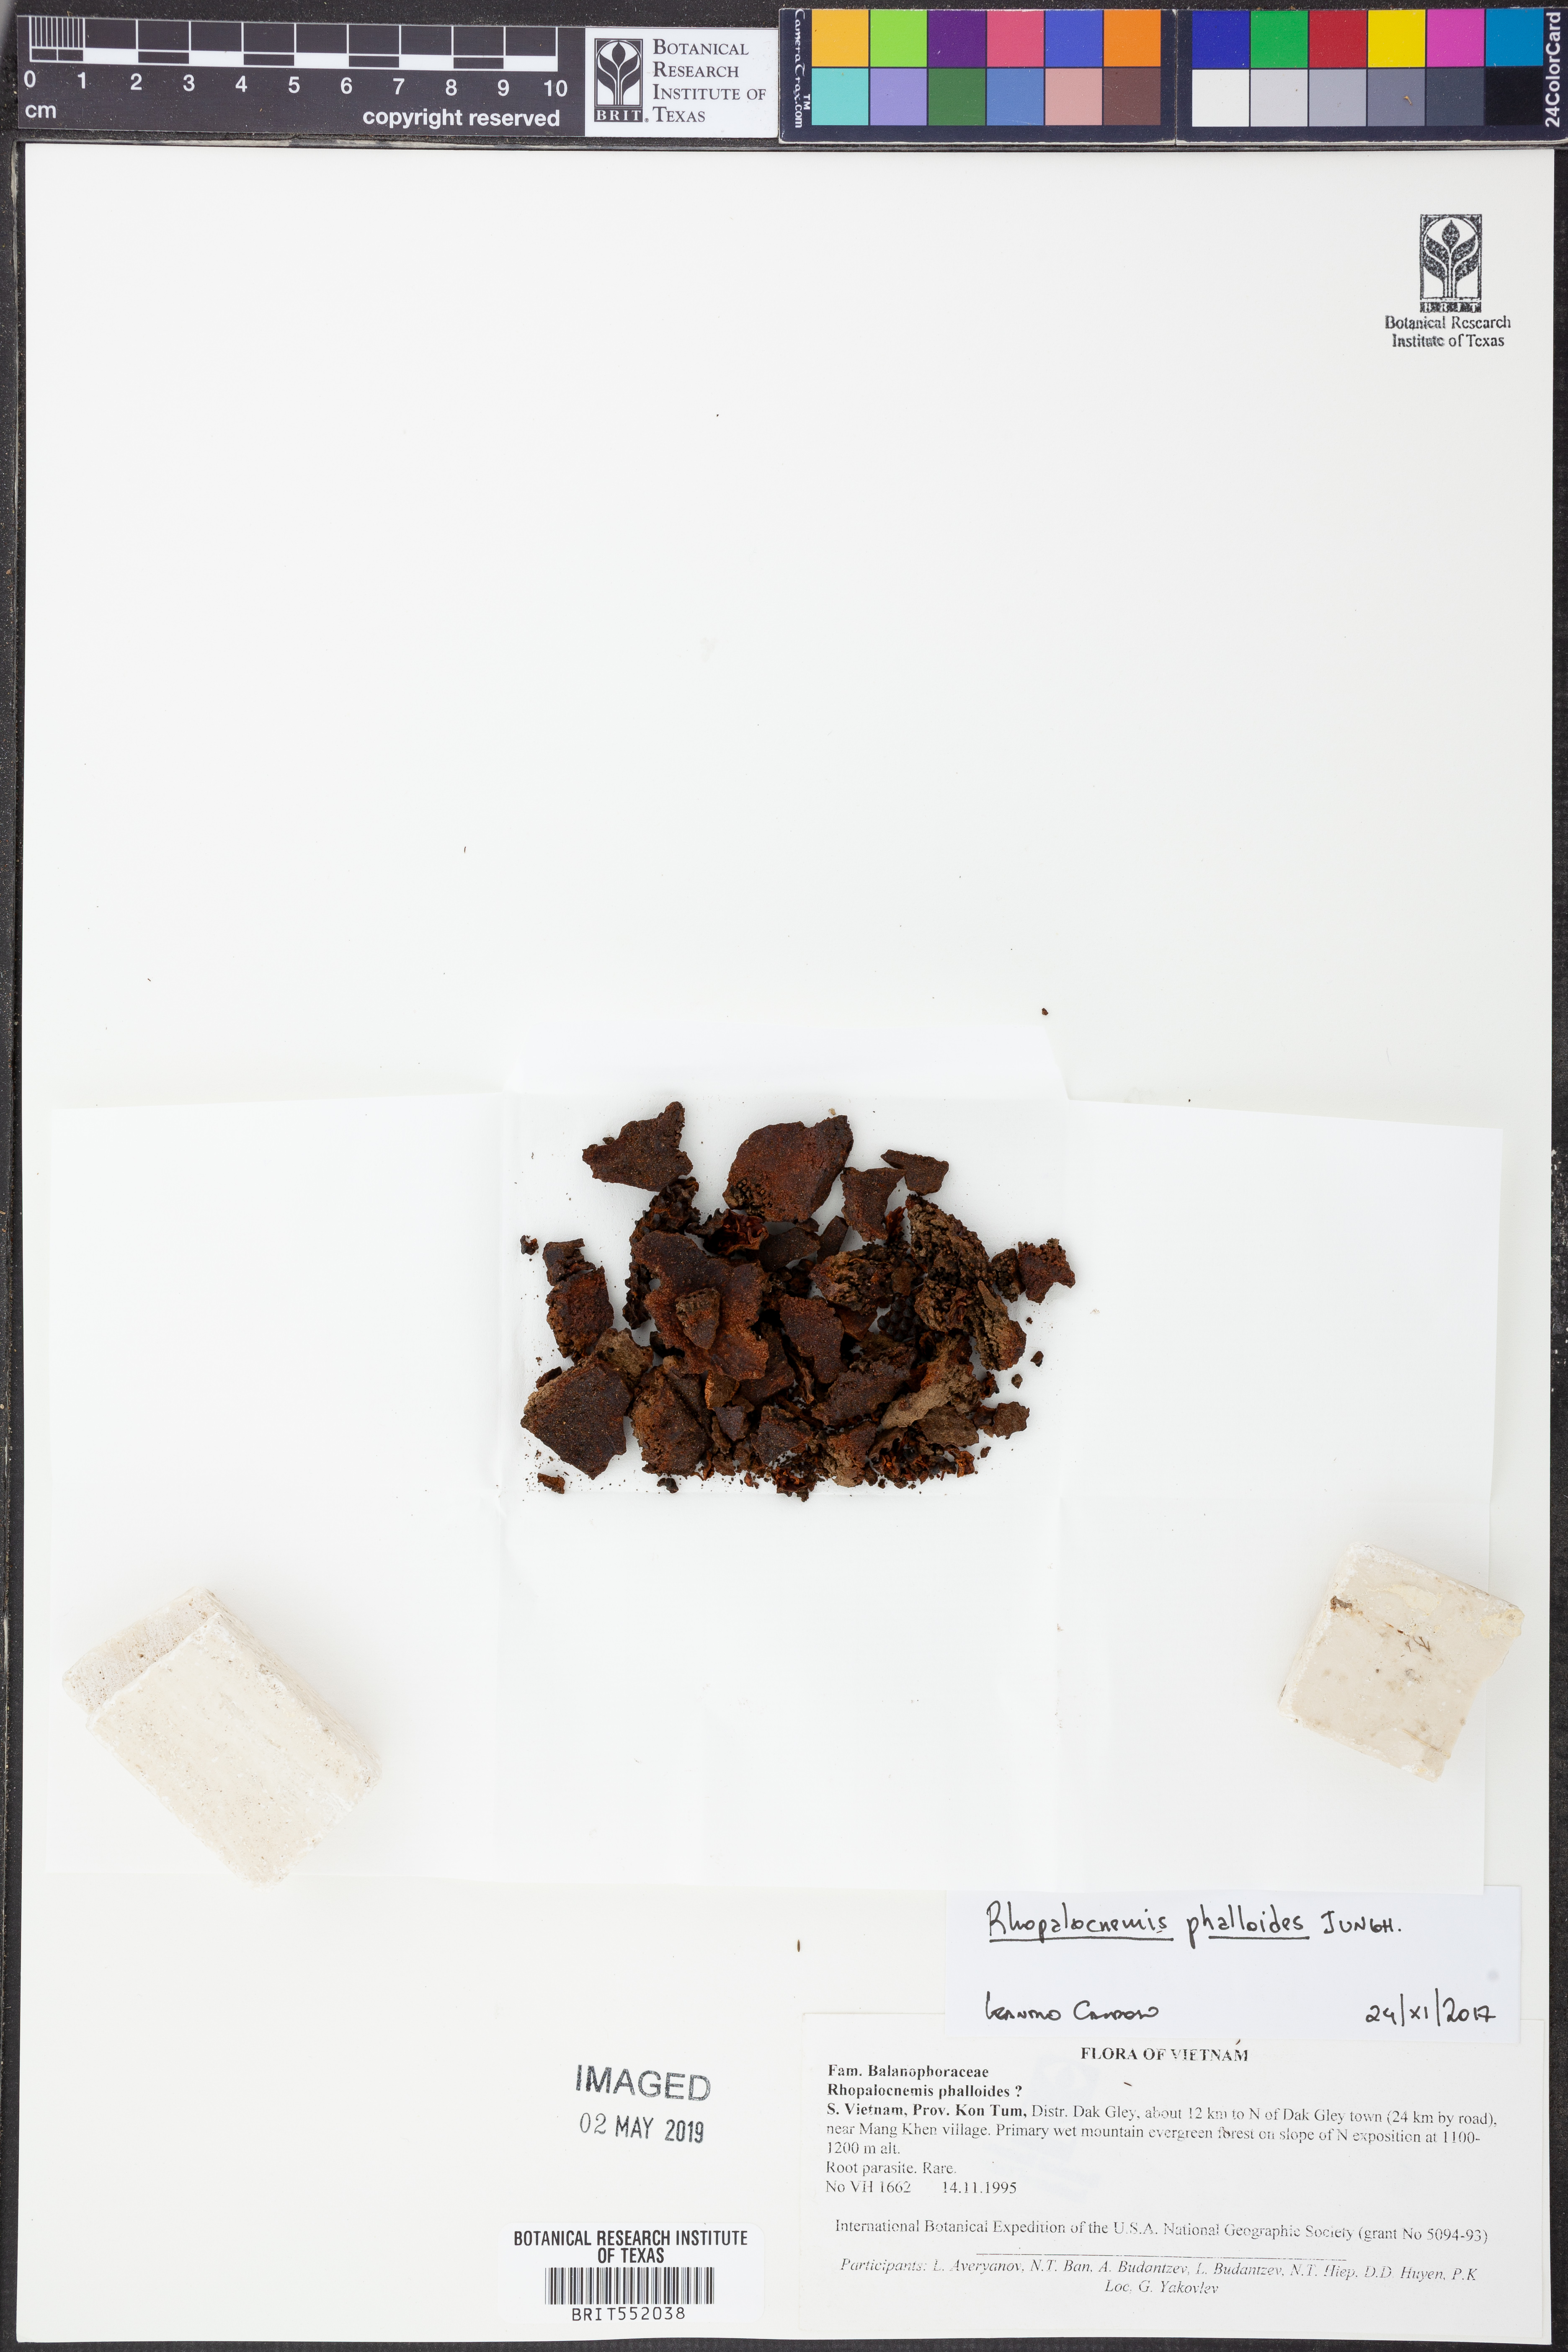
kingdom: Plantae
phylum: Tracheophyta
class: Magnoliopsida
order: Santalales
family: Balanophoraceae
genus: Rhopalocnemis
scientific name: Rhopalocnemis phalloides
